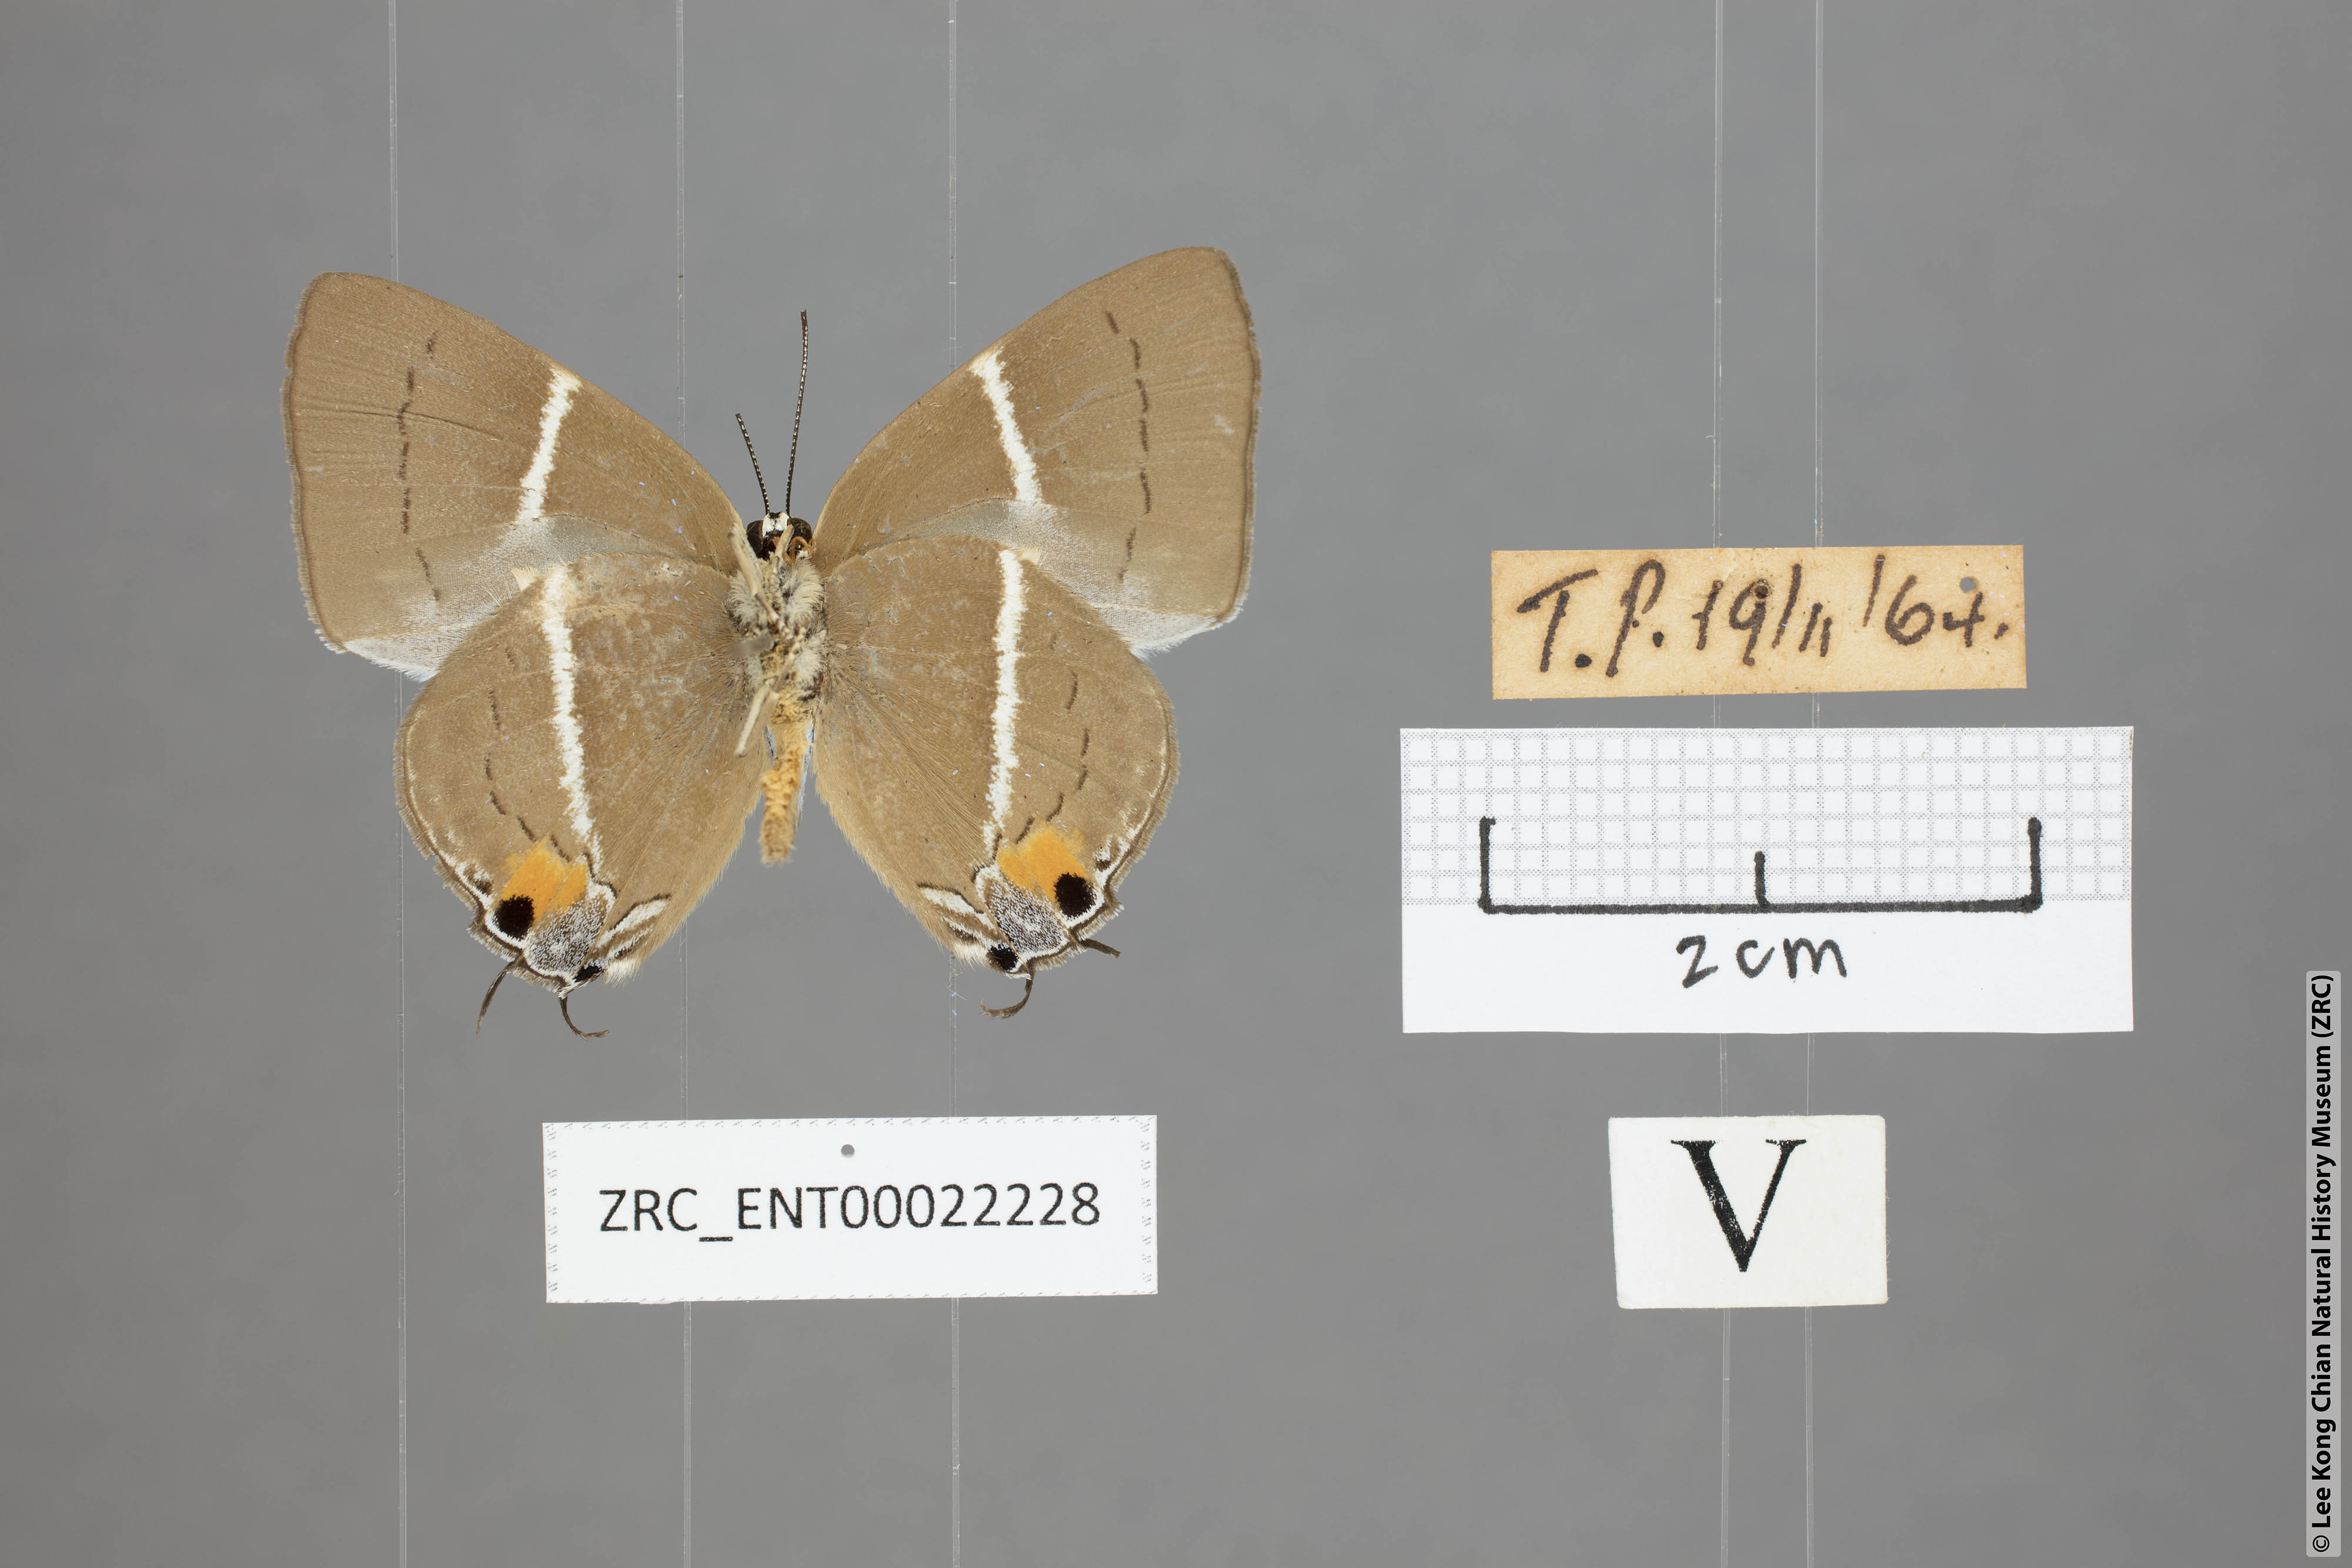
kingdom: Animalia
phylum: Arthropoda
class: Insecta
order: Lepidoptera
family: Lycaenidae
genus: Tajuria
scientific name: Tajuria
